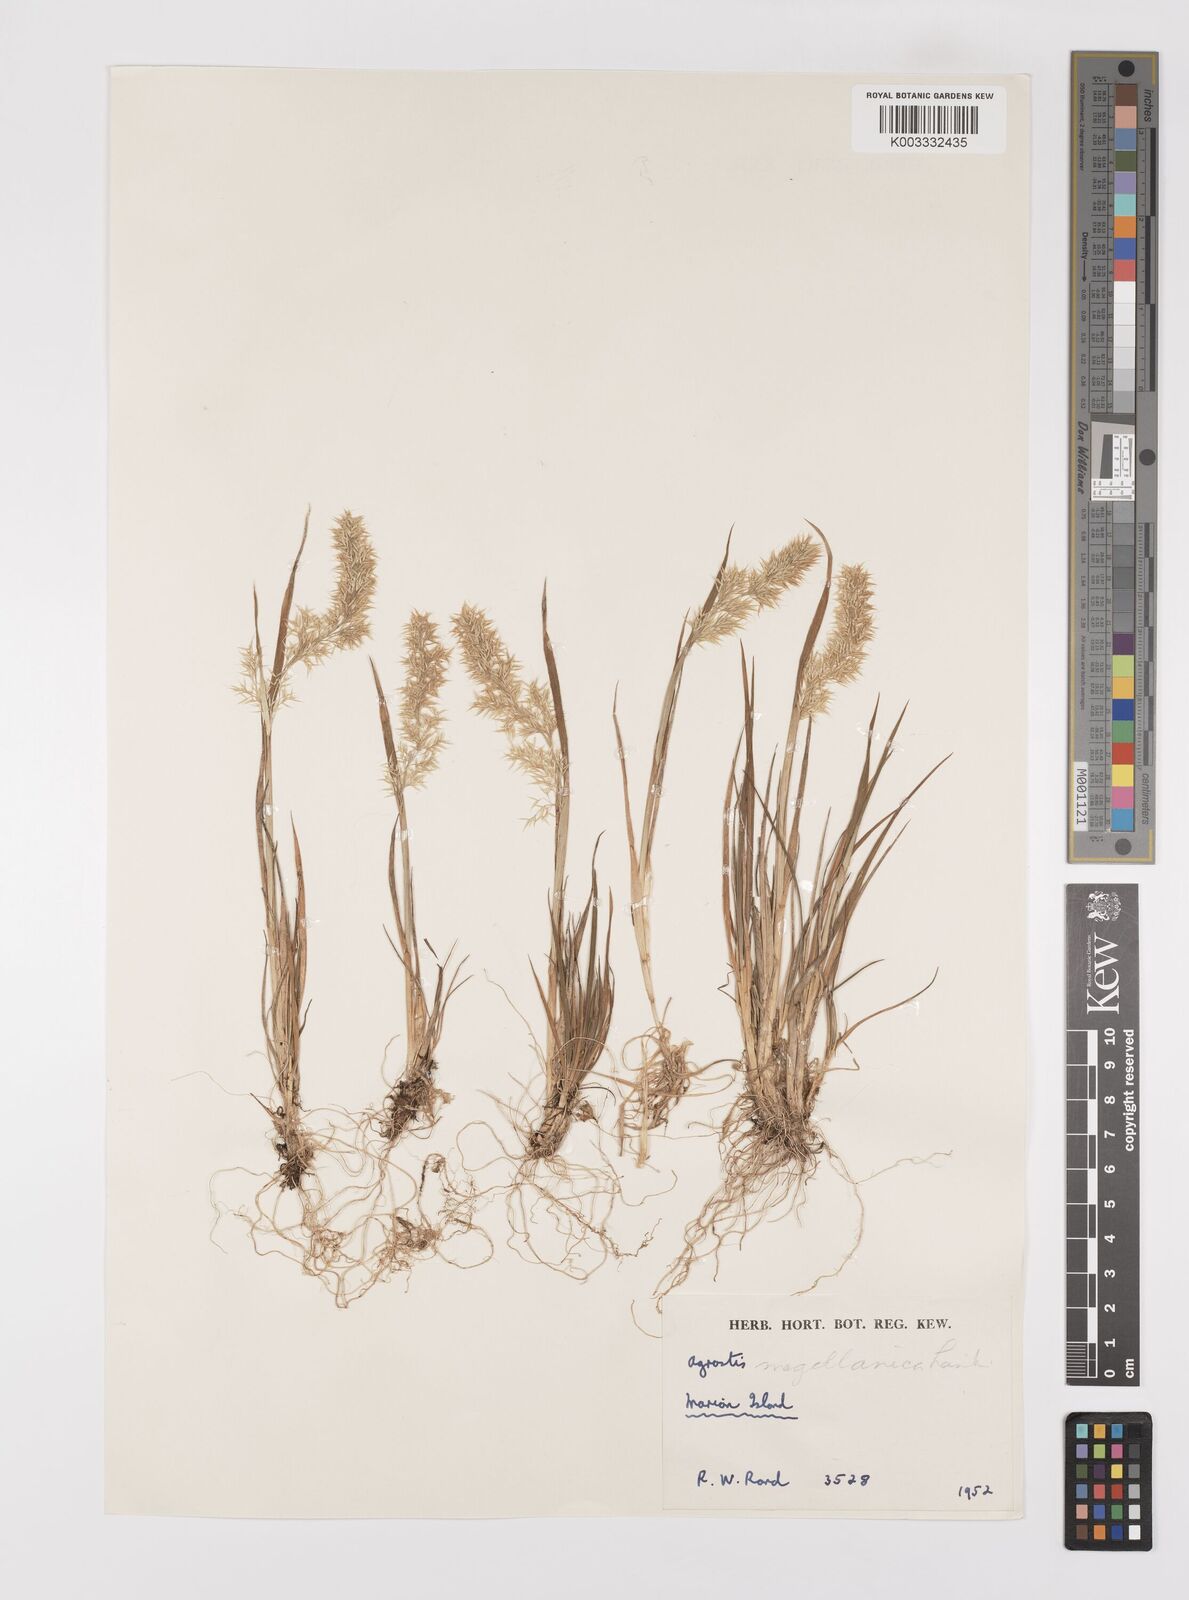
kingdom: Plantae
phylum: Tracheophyta
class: Liliopsida
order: Poales
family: Poaceae
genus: Polypogon
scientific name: Polypogon magellanicus
